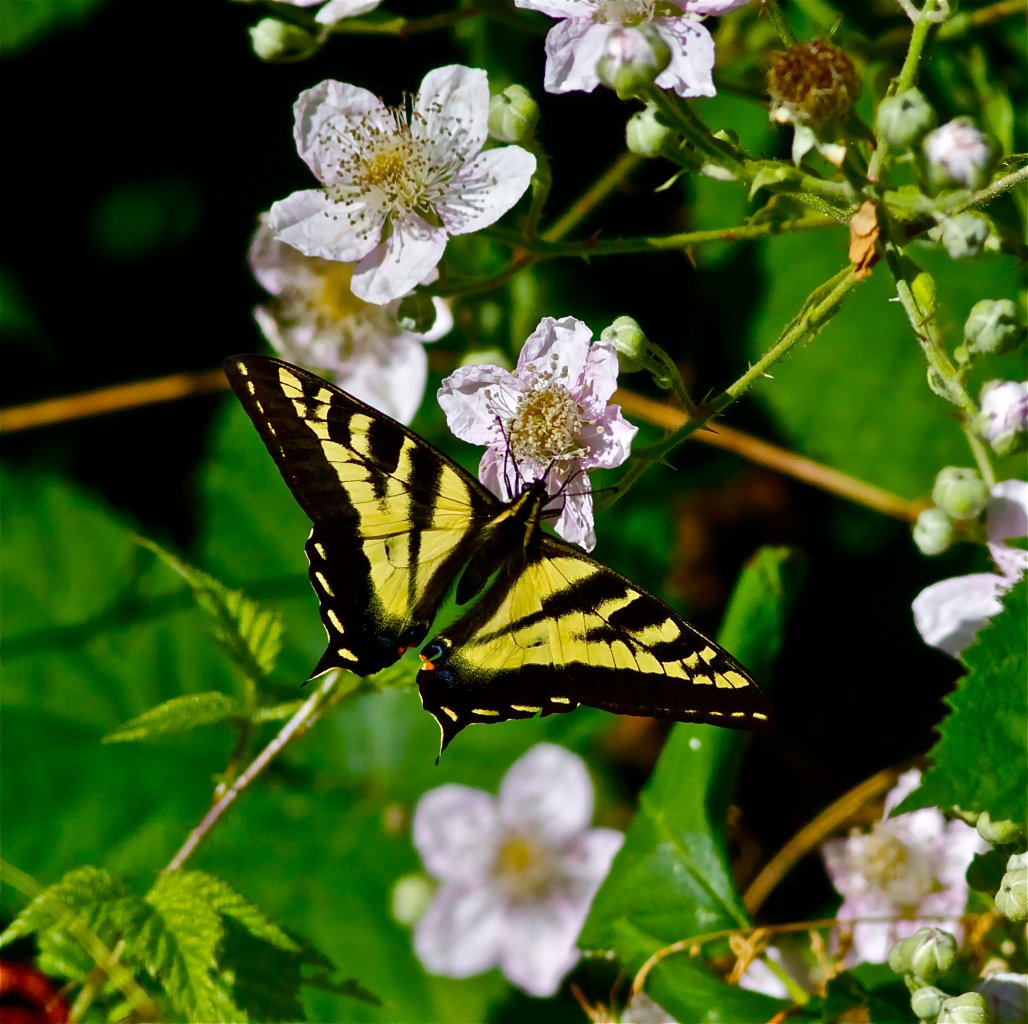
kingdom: Animalia
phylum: Arthropoda
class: Insecta
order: Lepidoptera
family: Papilionidae
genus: Pterourus
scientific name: Pterourus rutulus
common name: Western Tiger Swallowtail
